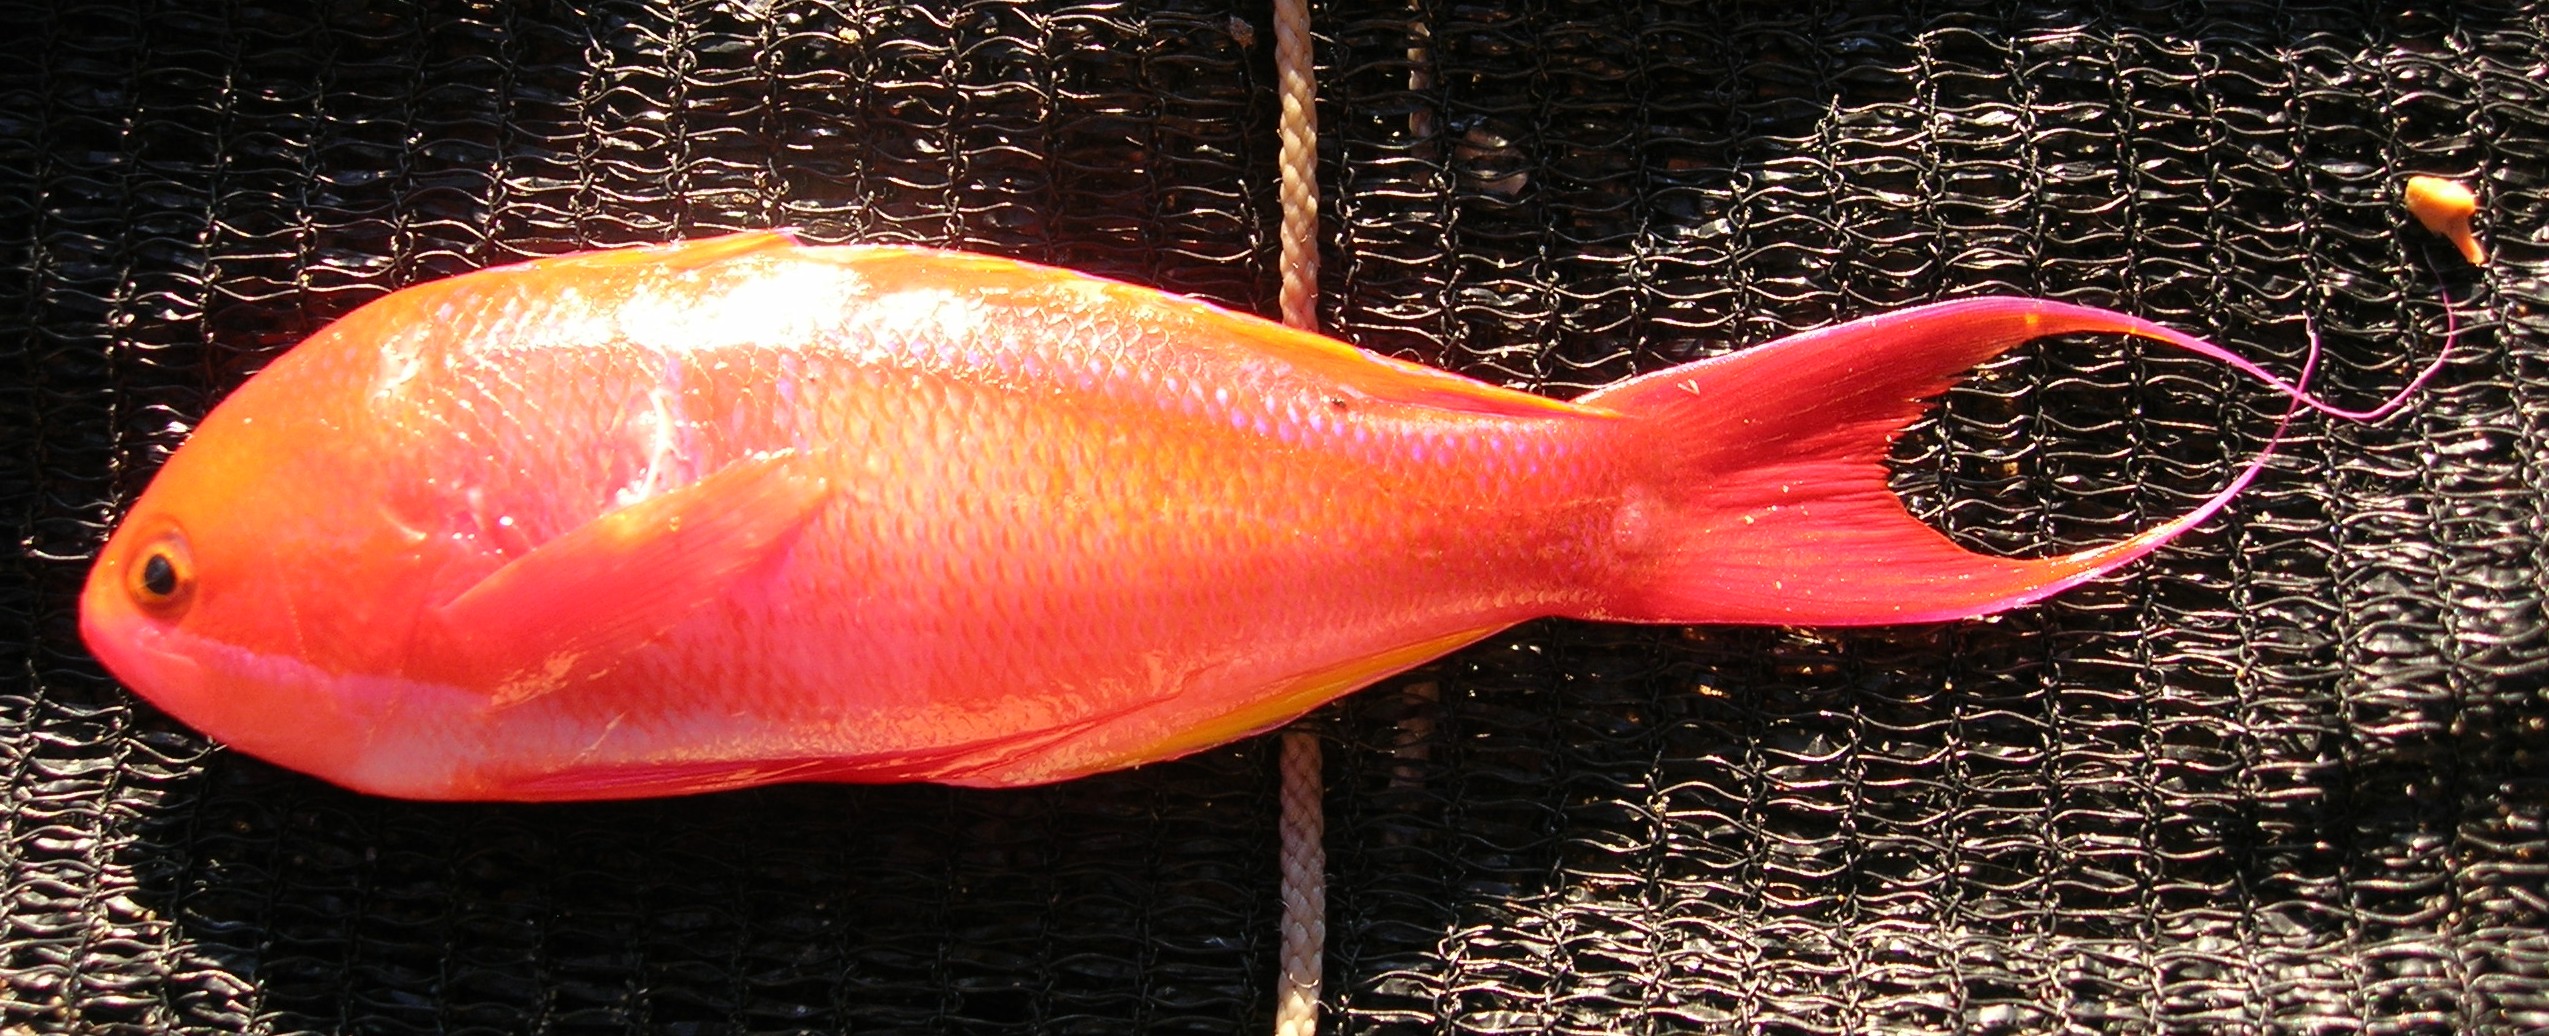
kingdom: Animalia
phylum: Chordata
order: Perciformes
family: Serranidae
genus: Pseudanthias
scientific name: Pseudanthias cooperi
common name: Red basslet
